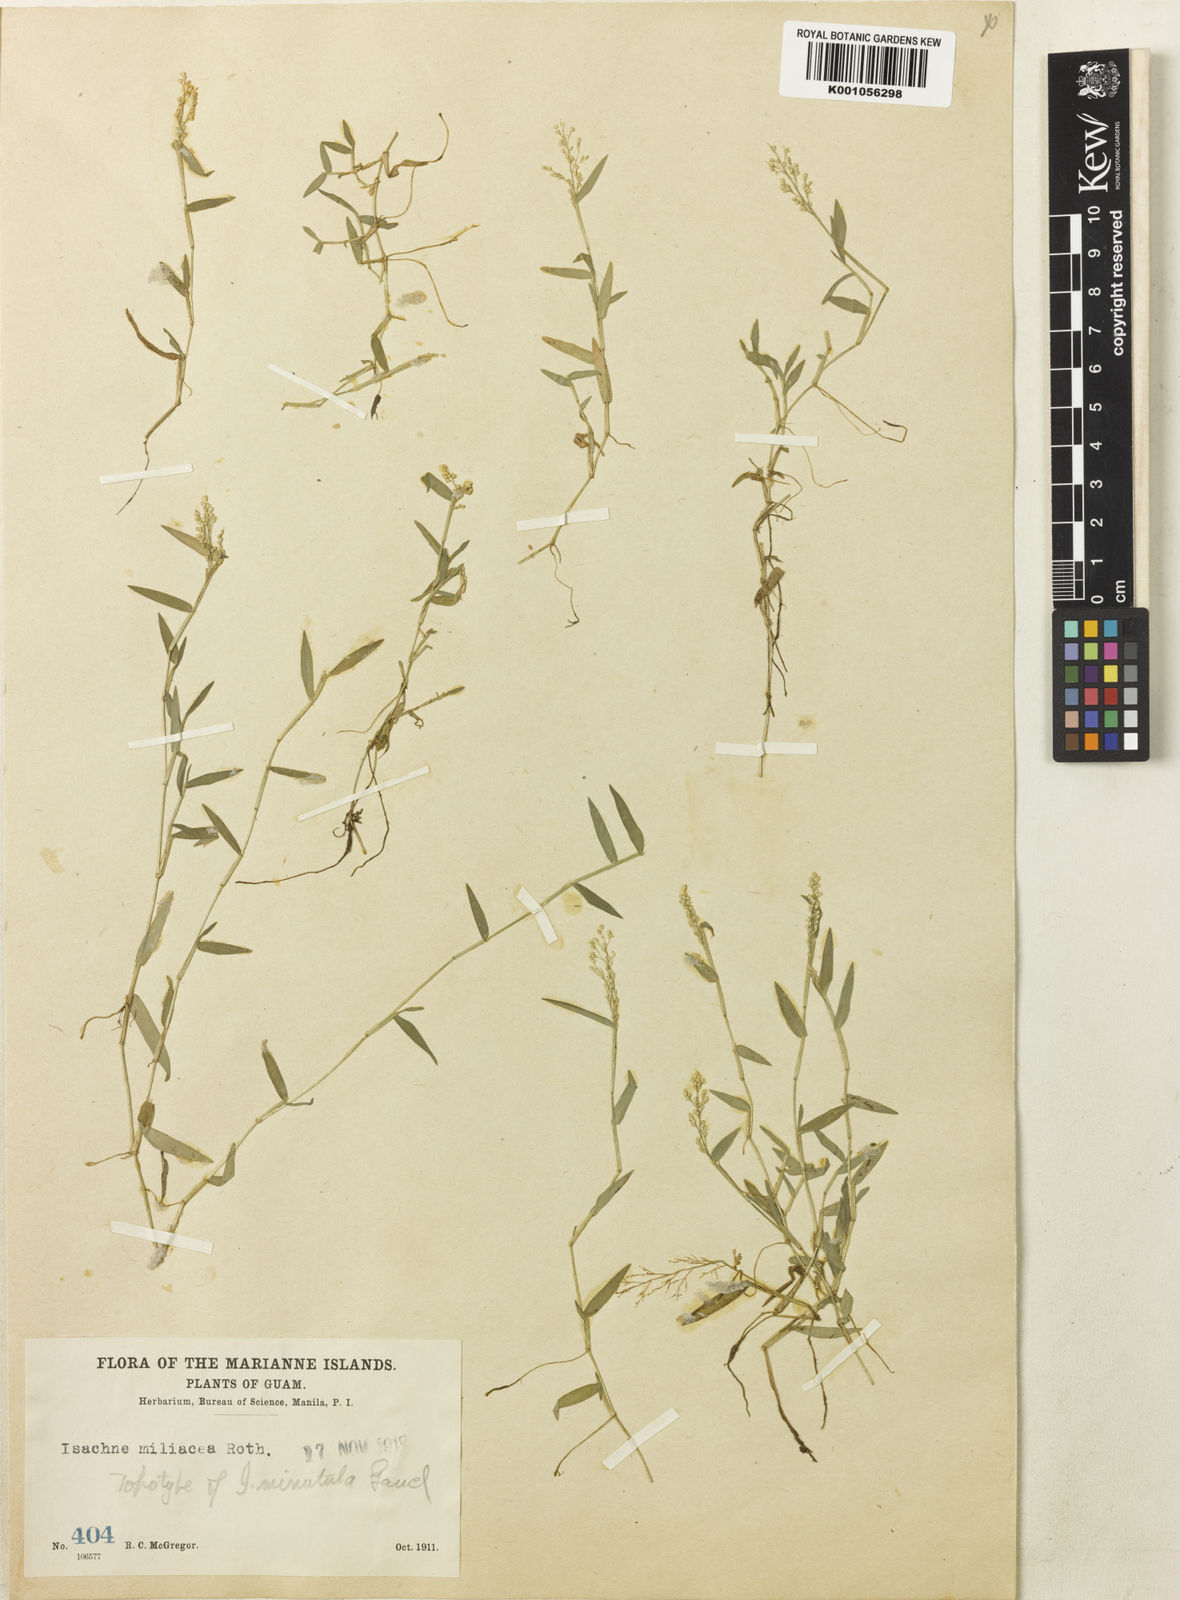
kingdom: Plantae
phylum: Tracheophyta
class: Liliopsida
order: Poales
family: Poaceae
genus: Isachne
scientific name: Isachne pallens
